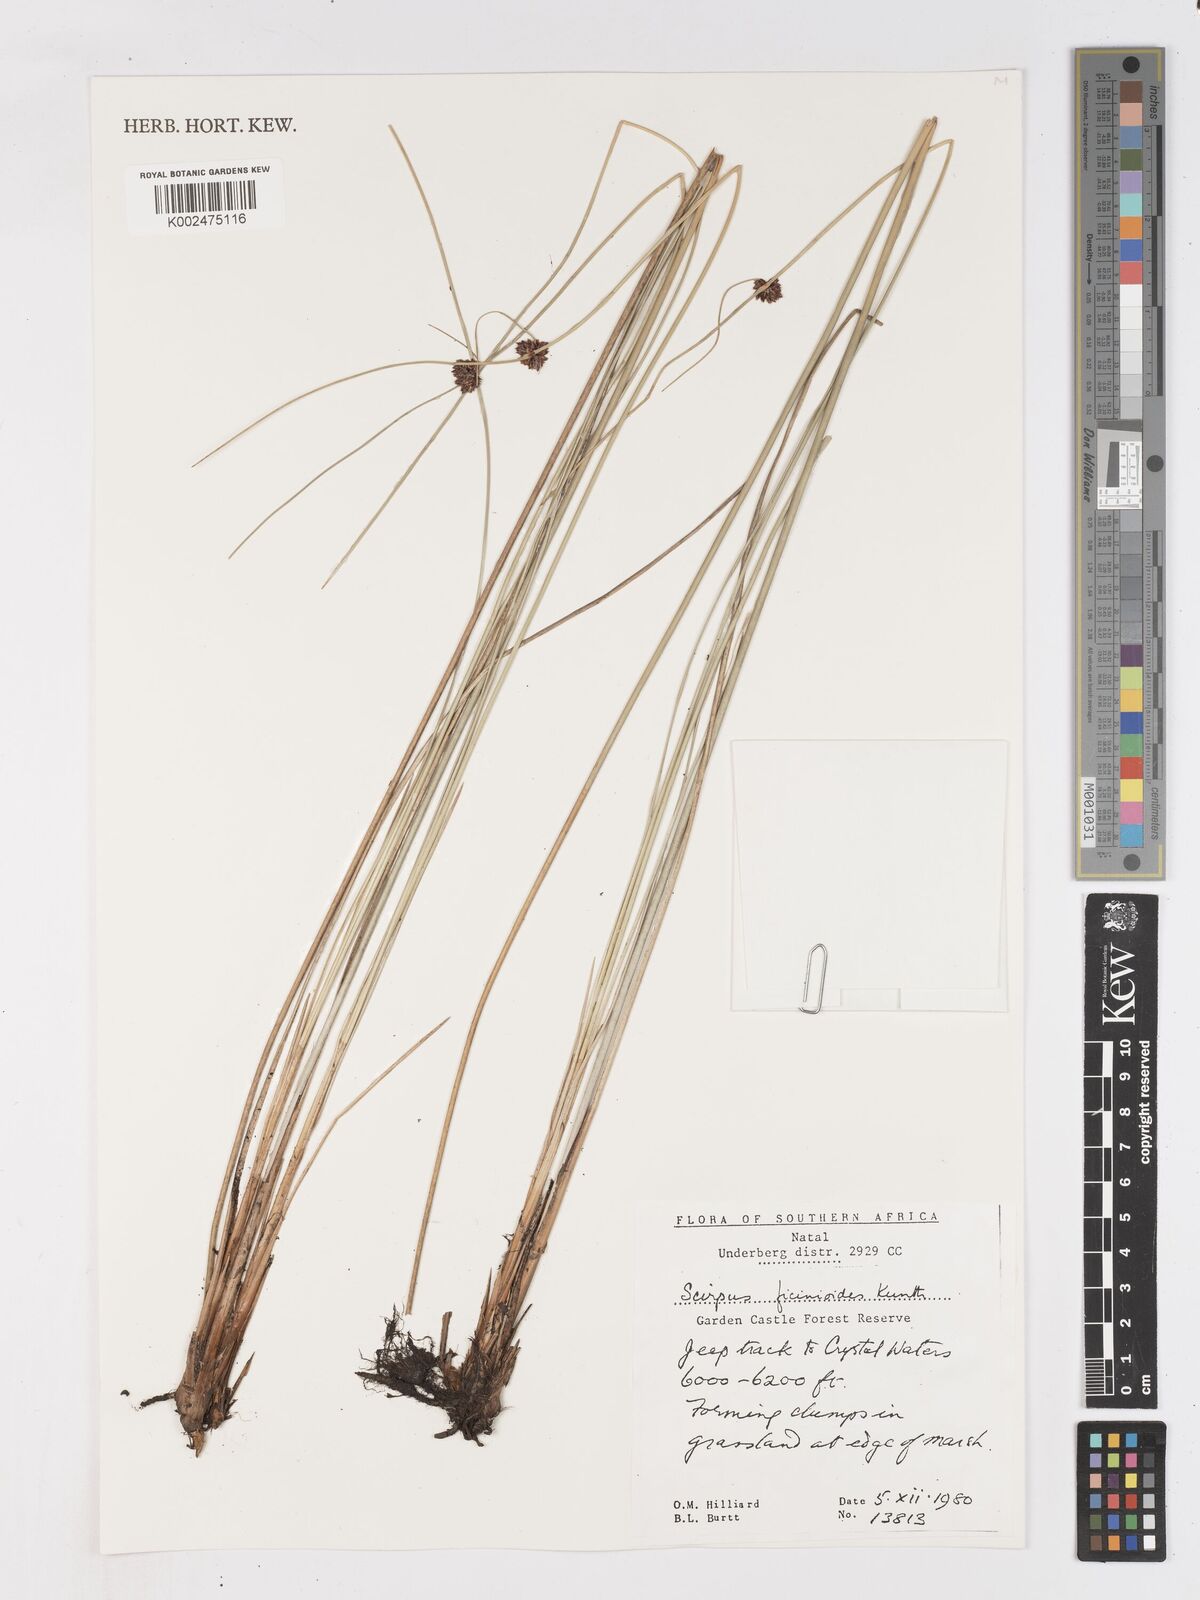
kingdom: Plantae
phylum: Tracheophyta
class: Liliopsida
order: Poales
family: Cyperaceae
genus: Ficinia
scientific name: Ficinia filiformis
